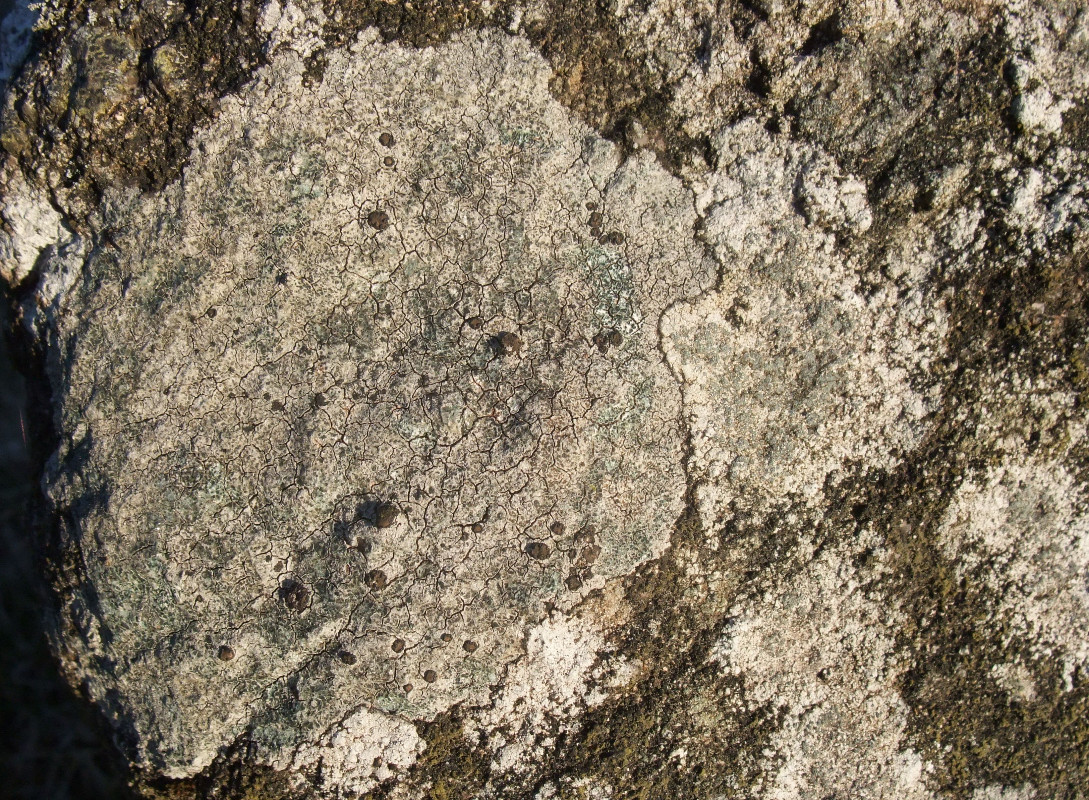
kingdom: Fungi
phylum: Ascomycota
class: Lecanoromycetes
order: Lecideales
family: Lecideaceae
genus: Porpidia
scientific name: Porpidia tuberculosa
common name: broget bredskivelav
